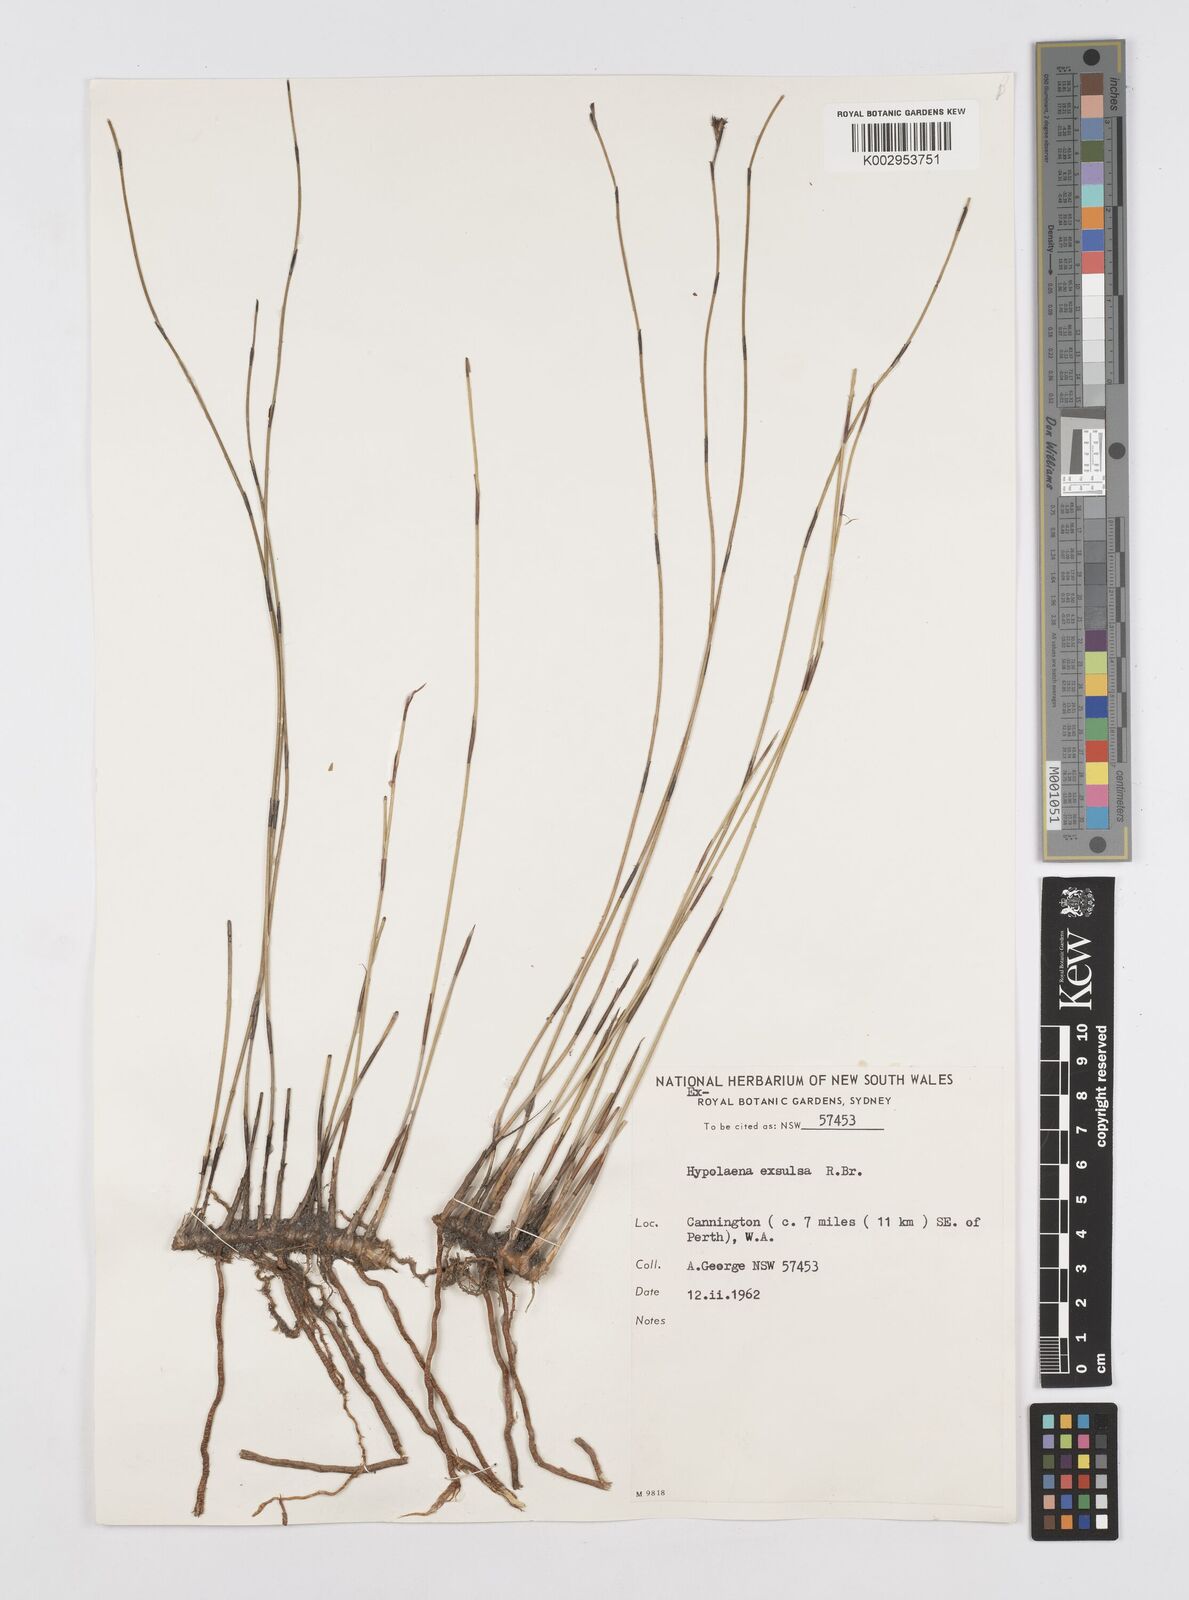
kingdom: Plantae
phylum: Tracheophyta
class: Liliopsida
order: Poales
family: Restionaceae
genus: Hypolaena
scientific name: Hypolaena exsulca
